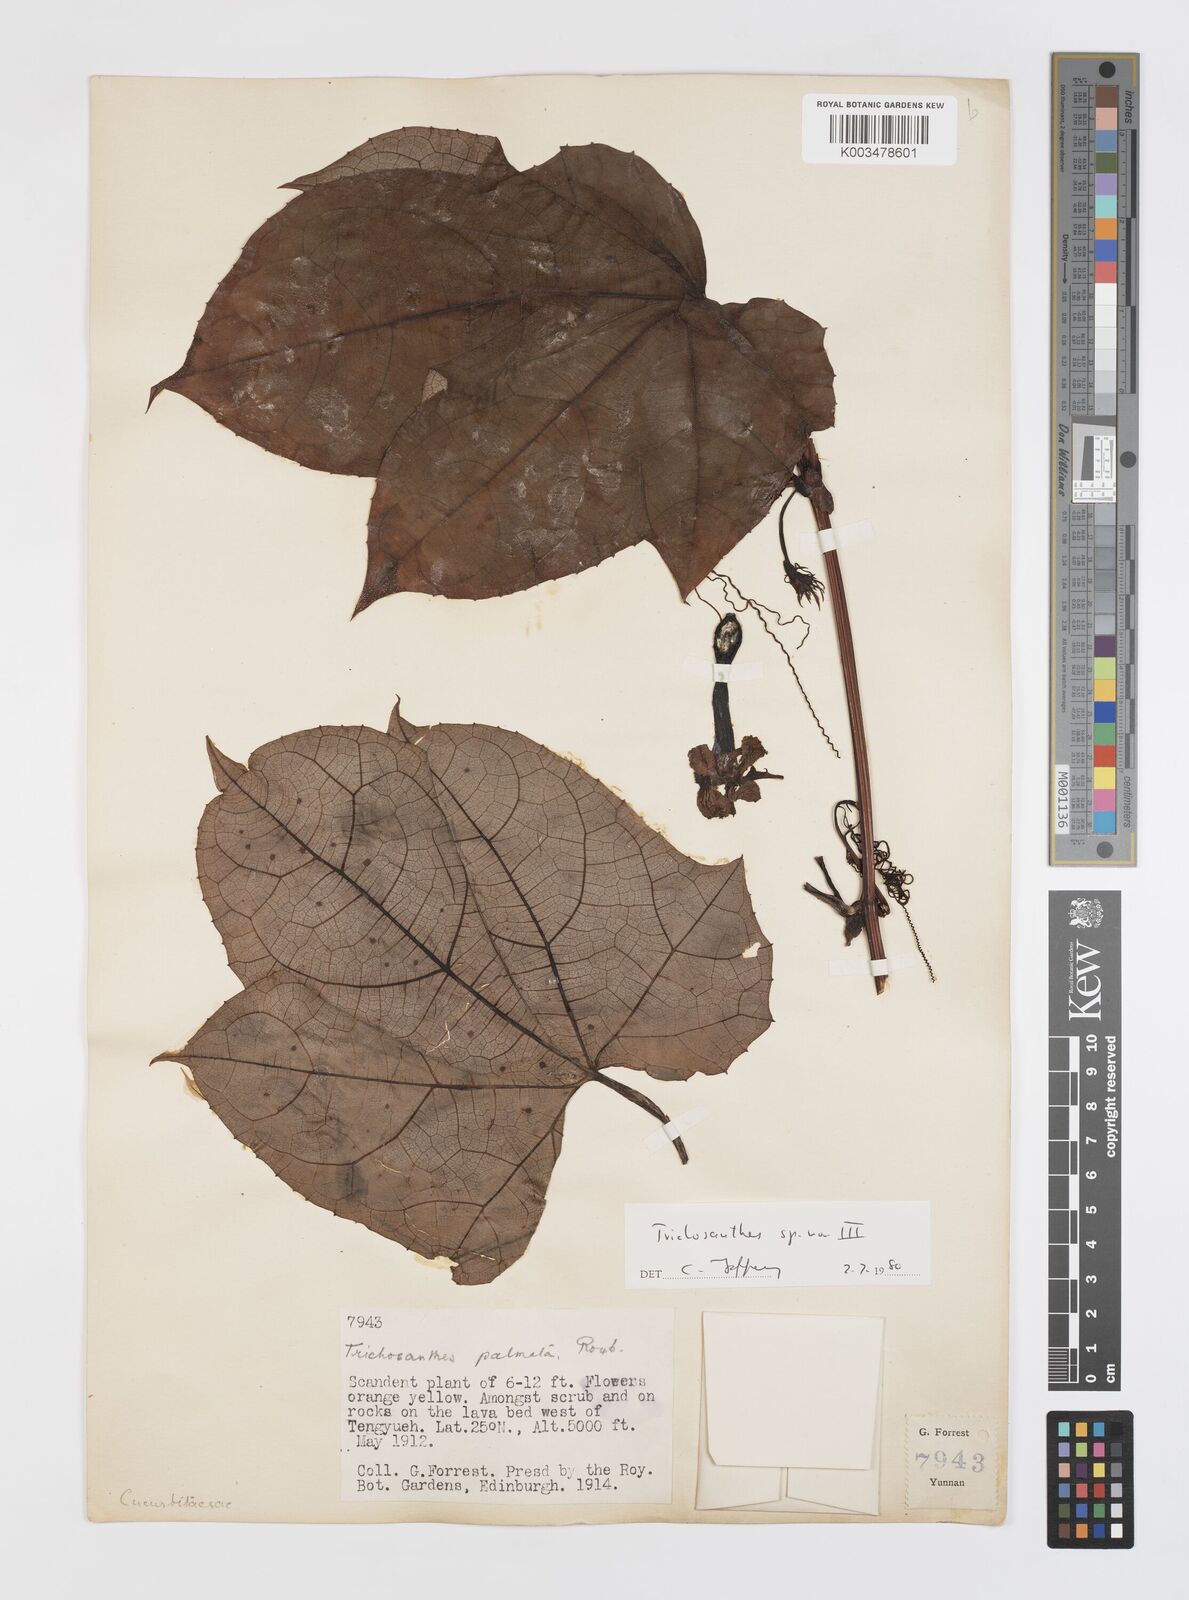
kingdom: Plantae
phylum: Tracheophyta
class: Magnoliopsida
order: Cucurbitales
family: Cucurbitaceae
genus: Trichosanthes
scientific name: Trichosanthes
